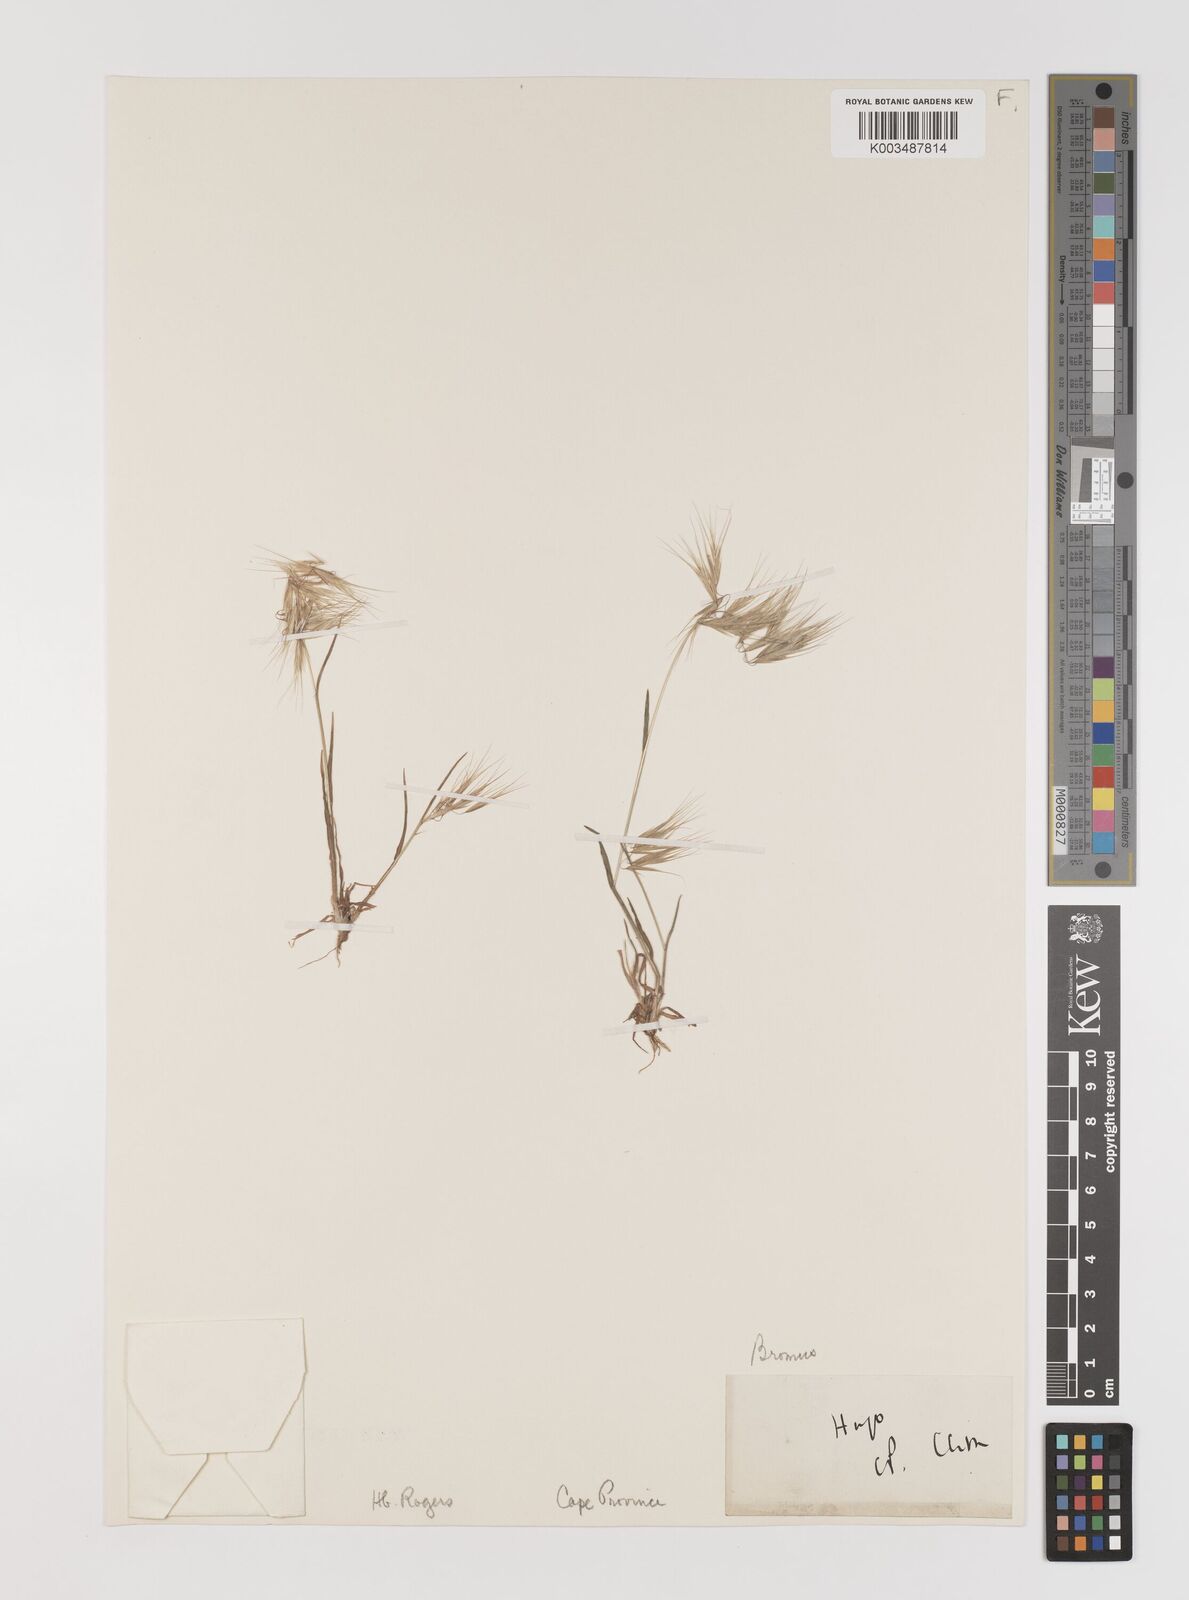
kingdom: Plantae
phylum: Tracheophyta
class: Liliopsida
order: Poales
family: Poaceae
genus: Bromus
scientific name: Bromus tectorum
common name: Cheatgrass
